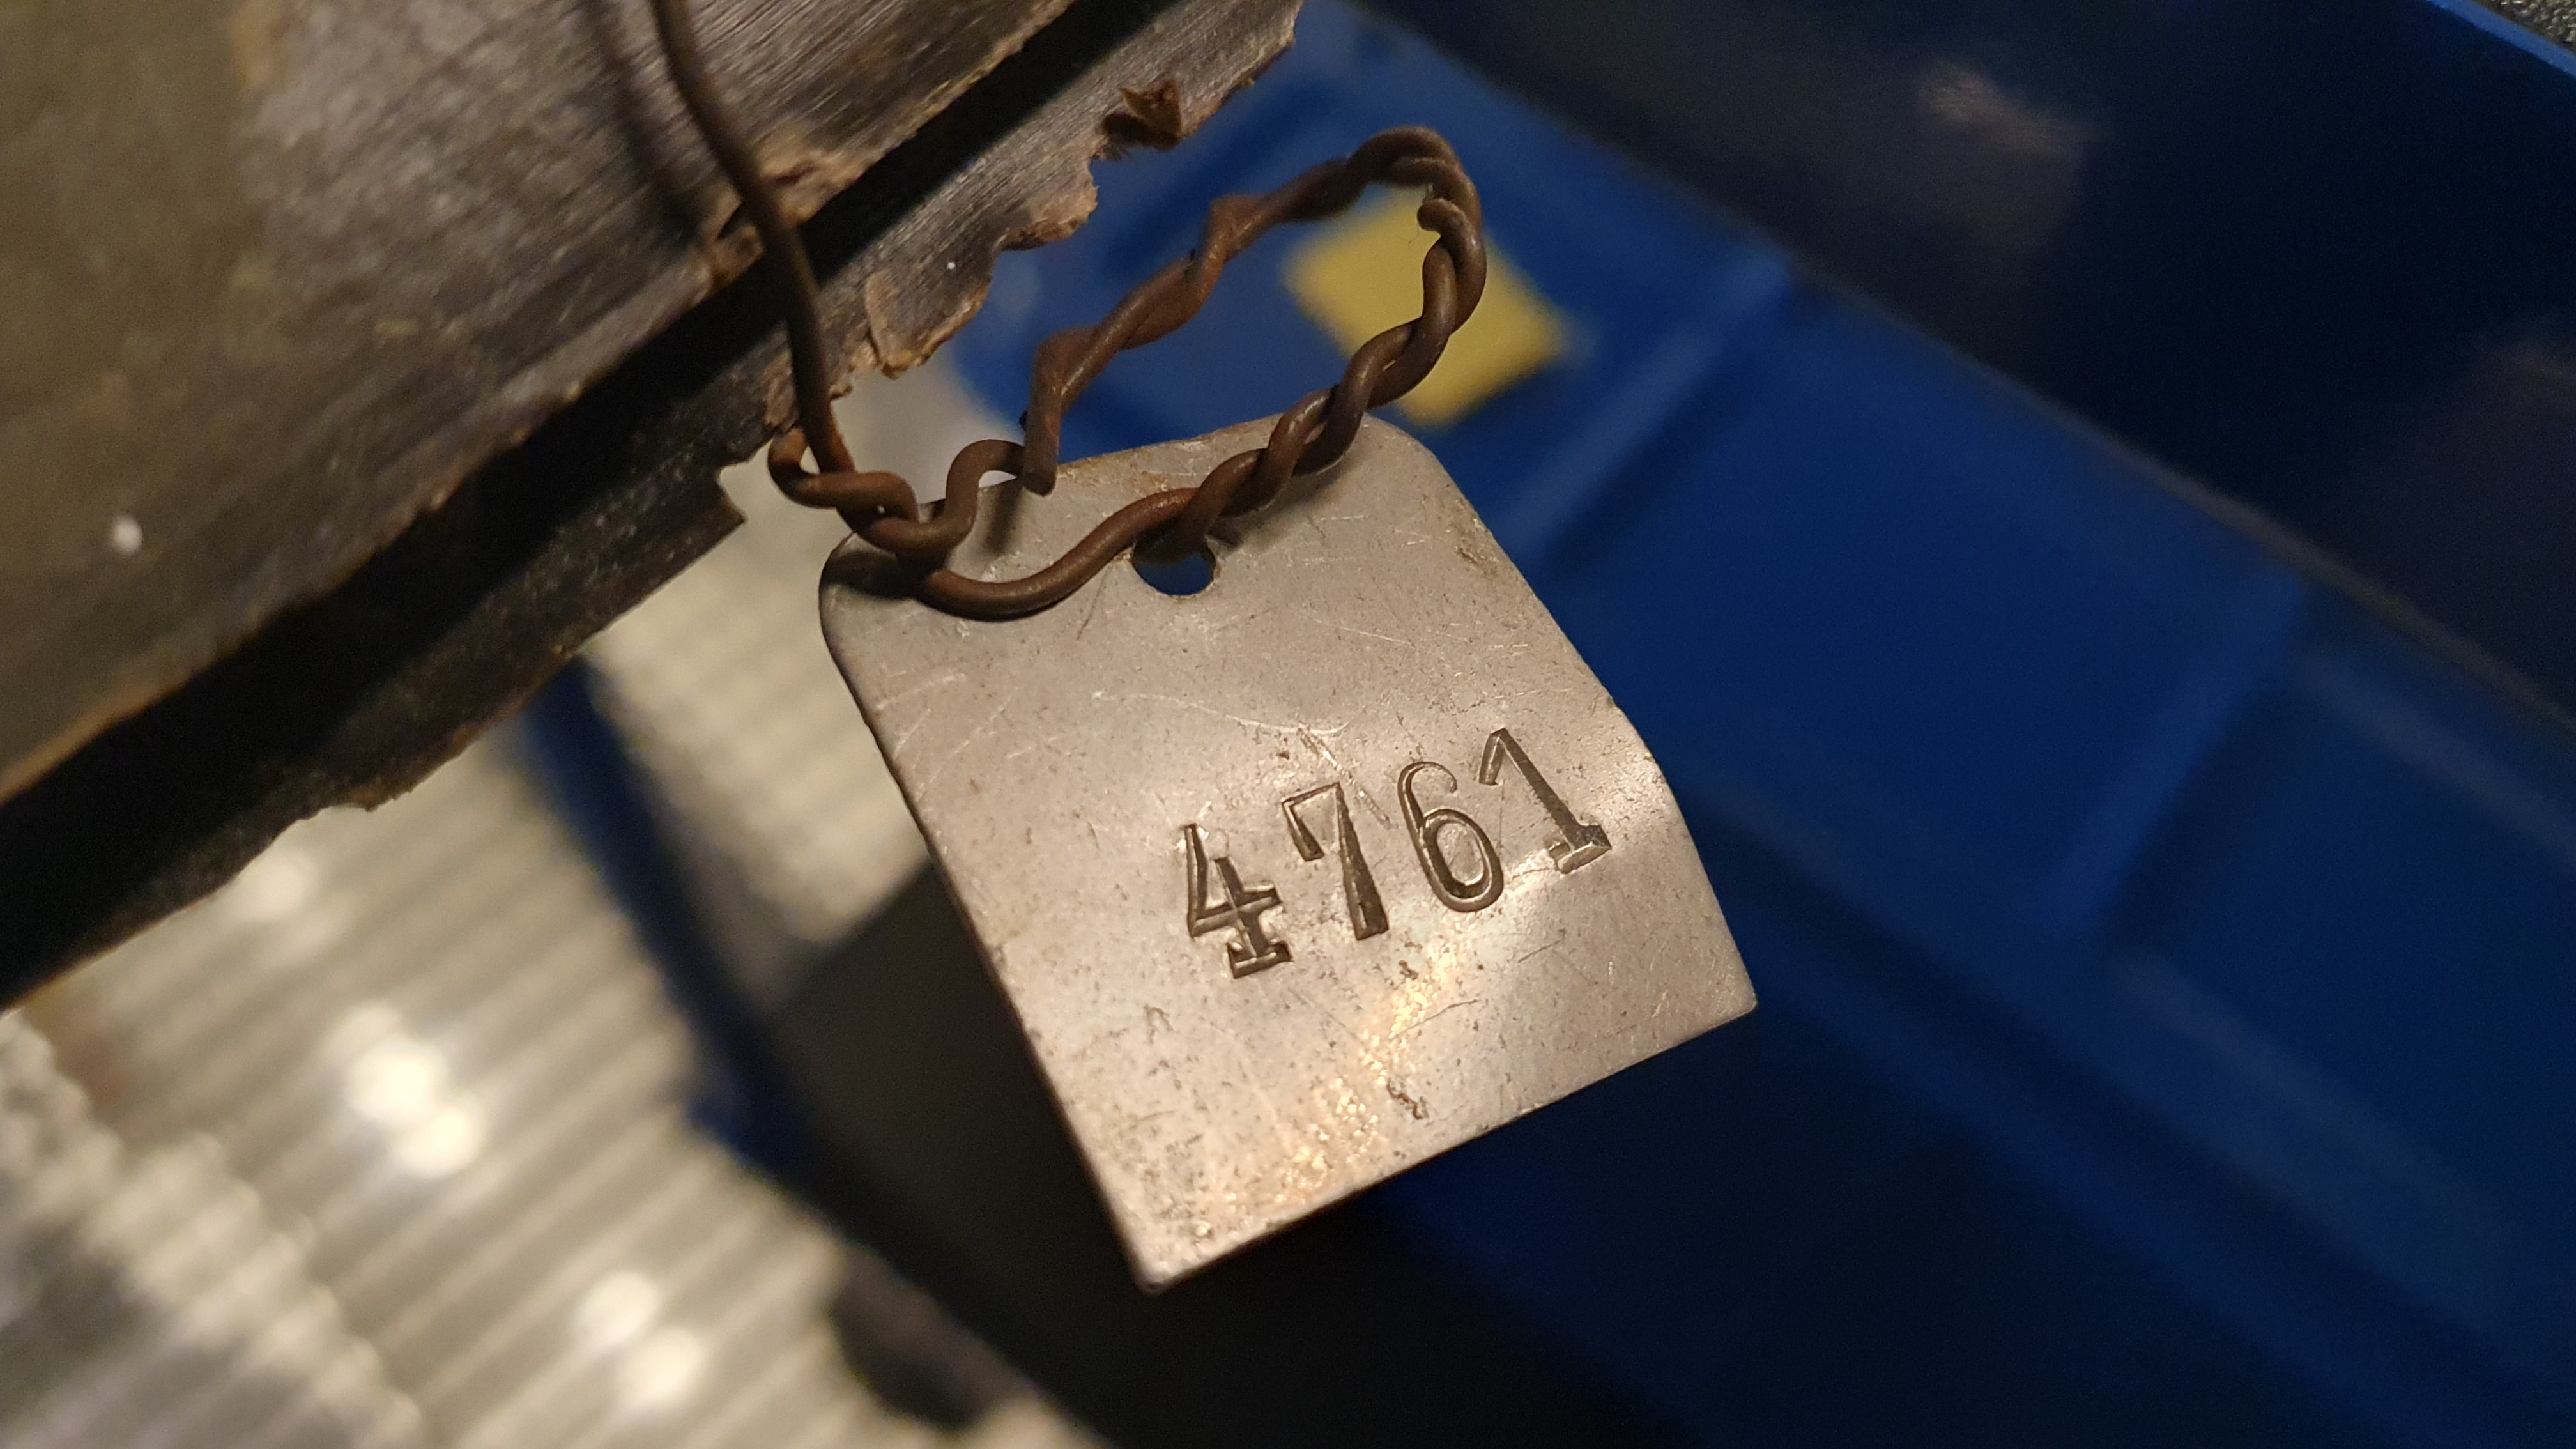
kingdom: Animalia
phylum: Chordata
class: Mammalia
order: Cetacea
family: Balaenidae
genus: Balaena
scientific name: Balaena mysticetus
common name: Bowhead whale
